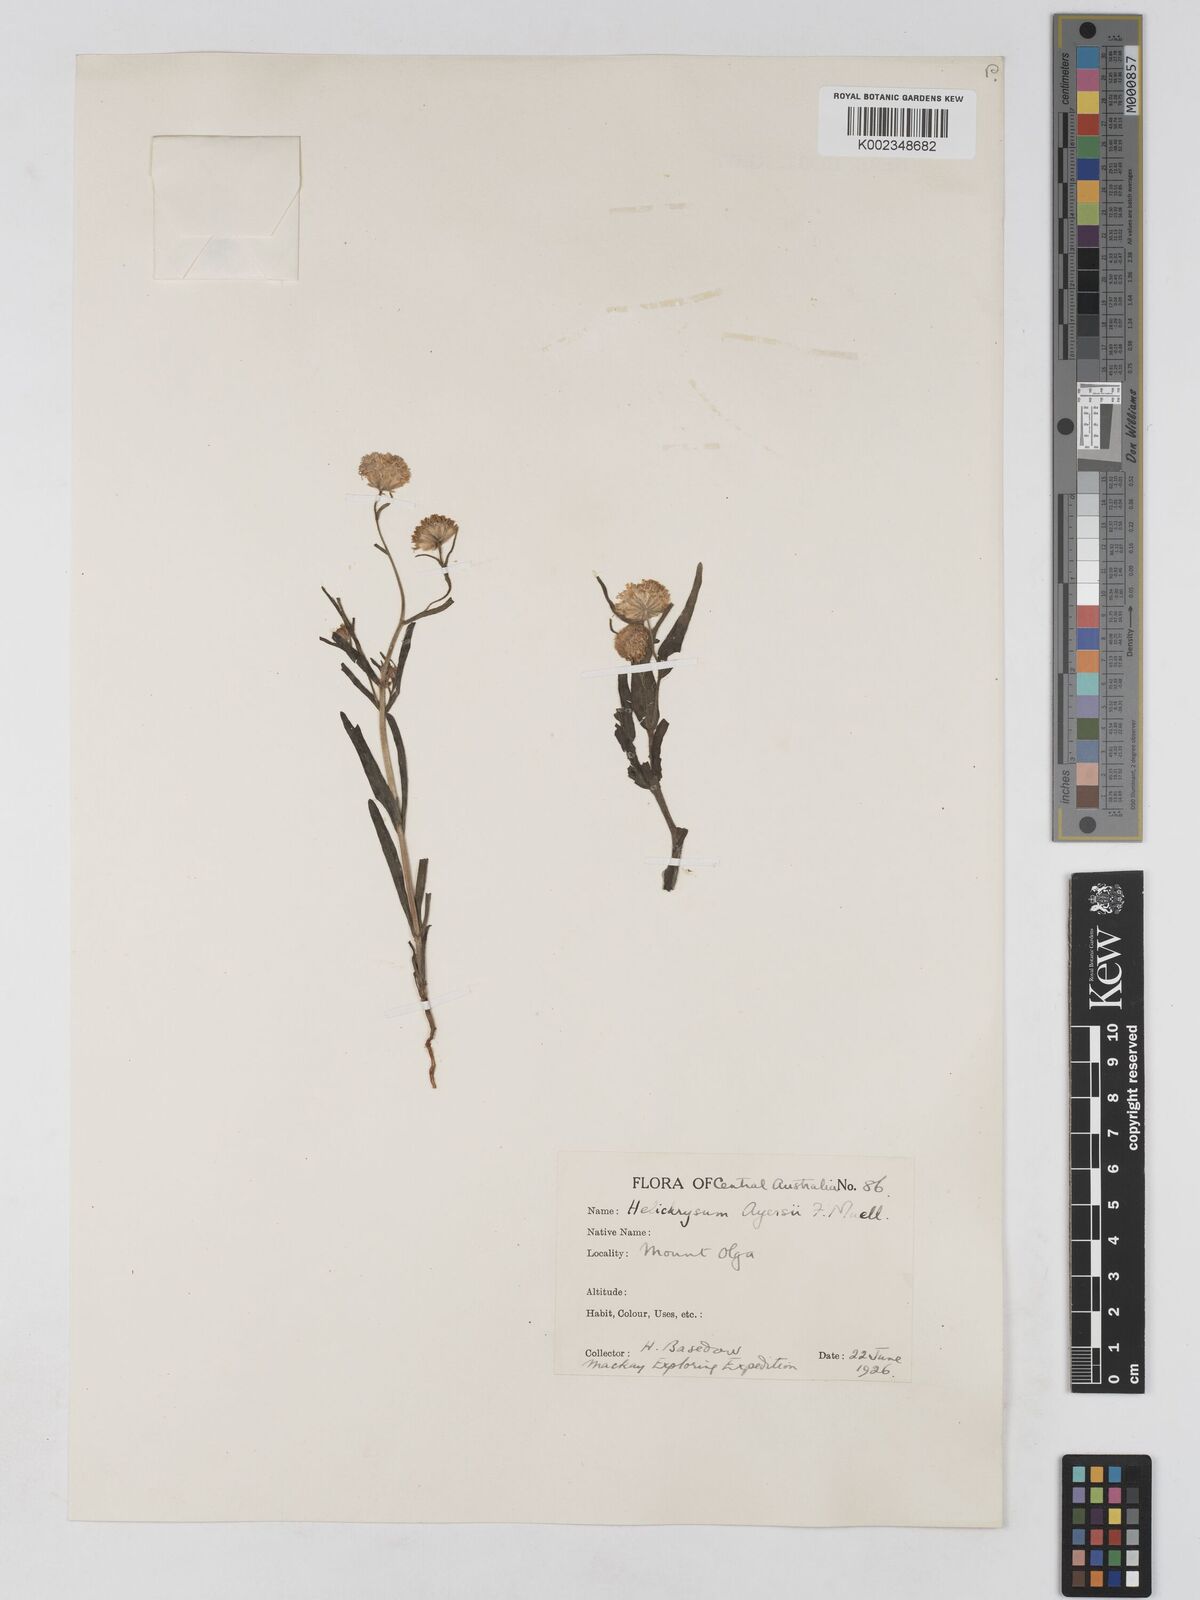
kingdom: Plantae
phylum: Tracheophyta
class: Magnoliopsida
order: Asterales
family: Asteraceae
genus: Schoenia
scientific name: Schoenia ayersii
